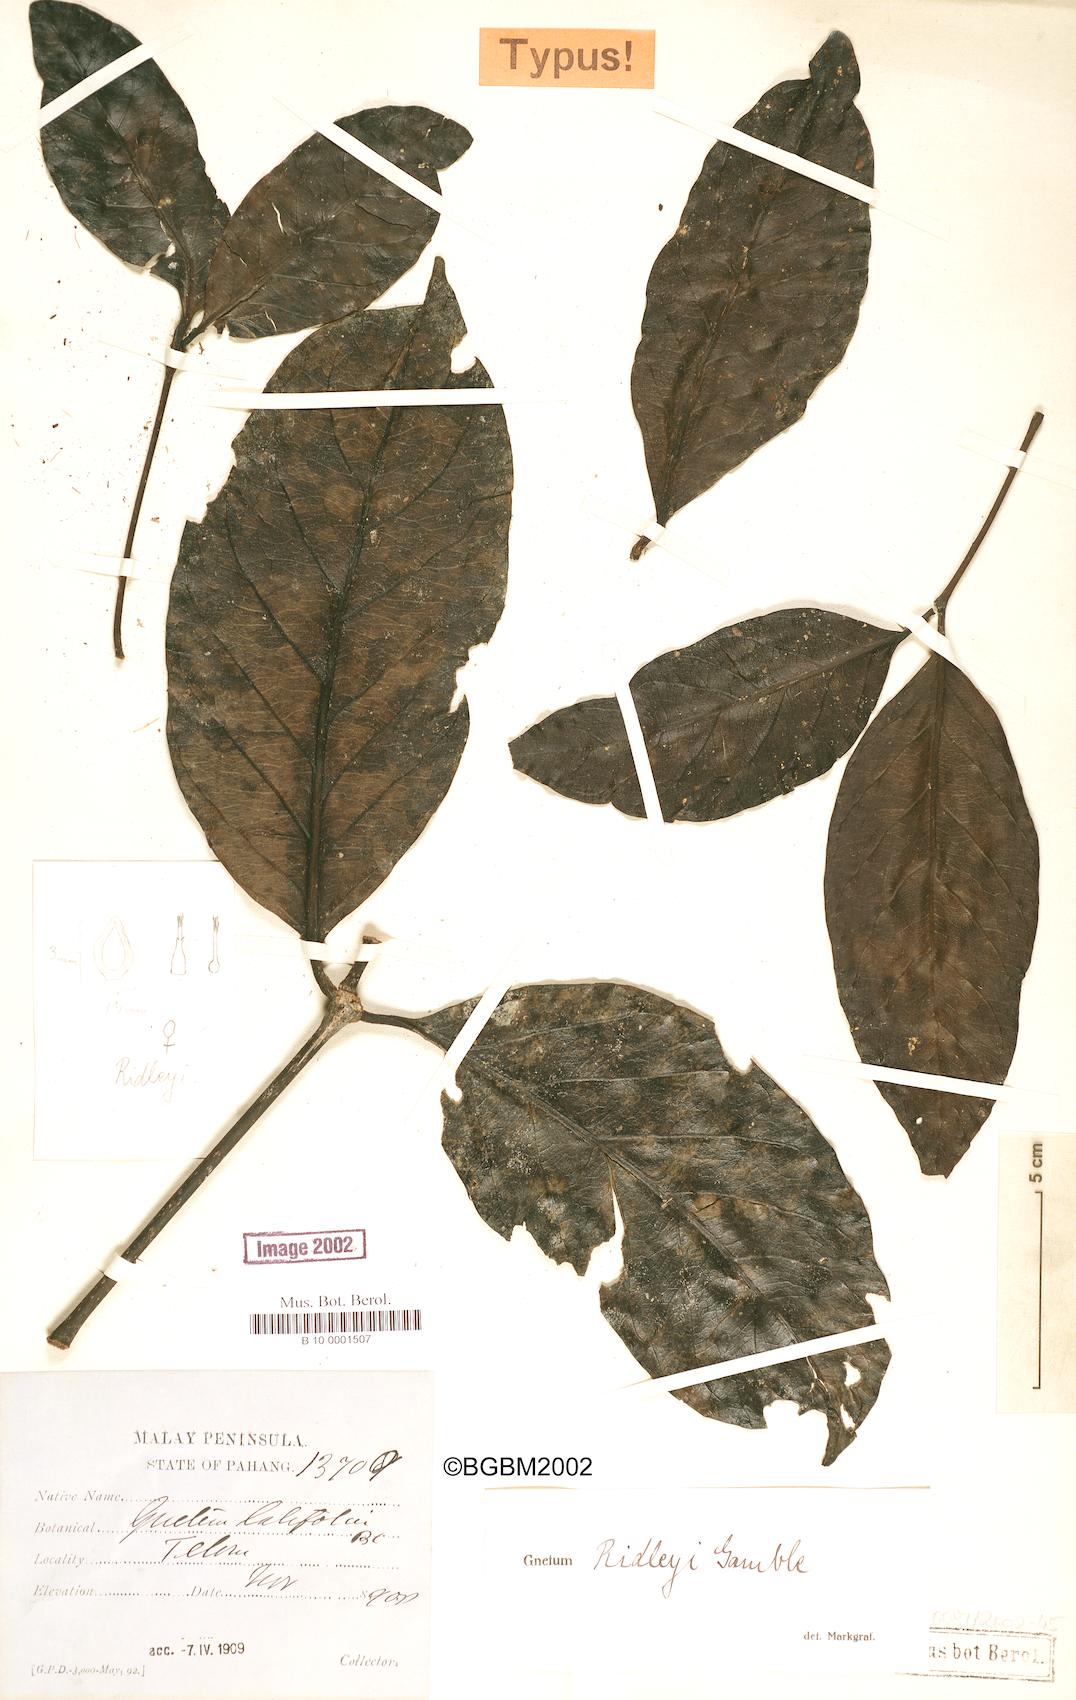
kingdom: Plantae
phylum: Tracheophyta
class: Gnetopsida
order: Gnetales
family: Gnetaceae
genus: Gnetum
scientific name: Gnetum ridleyi
